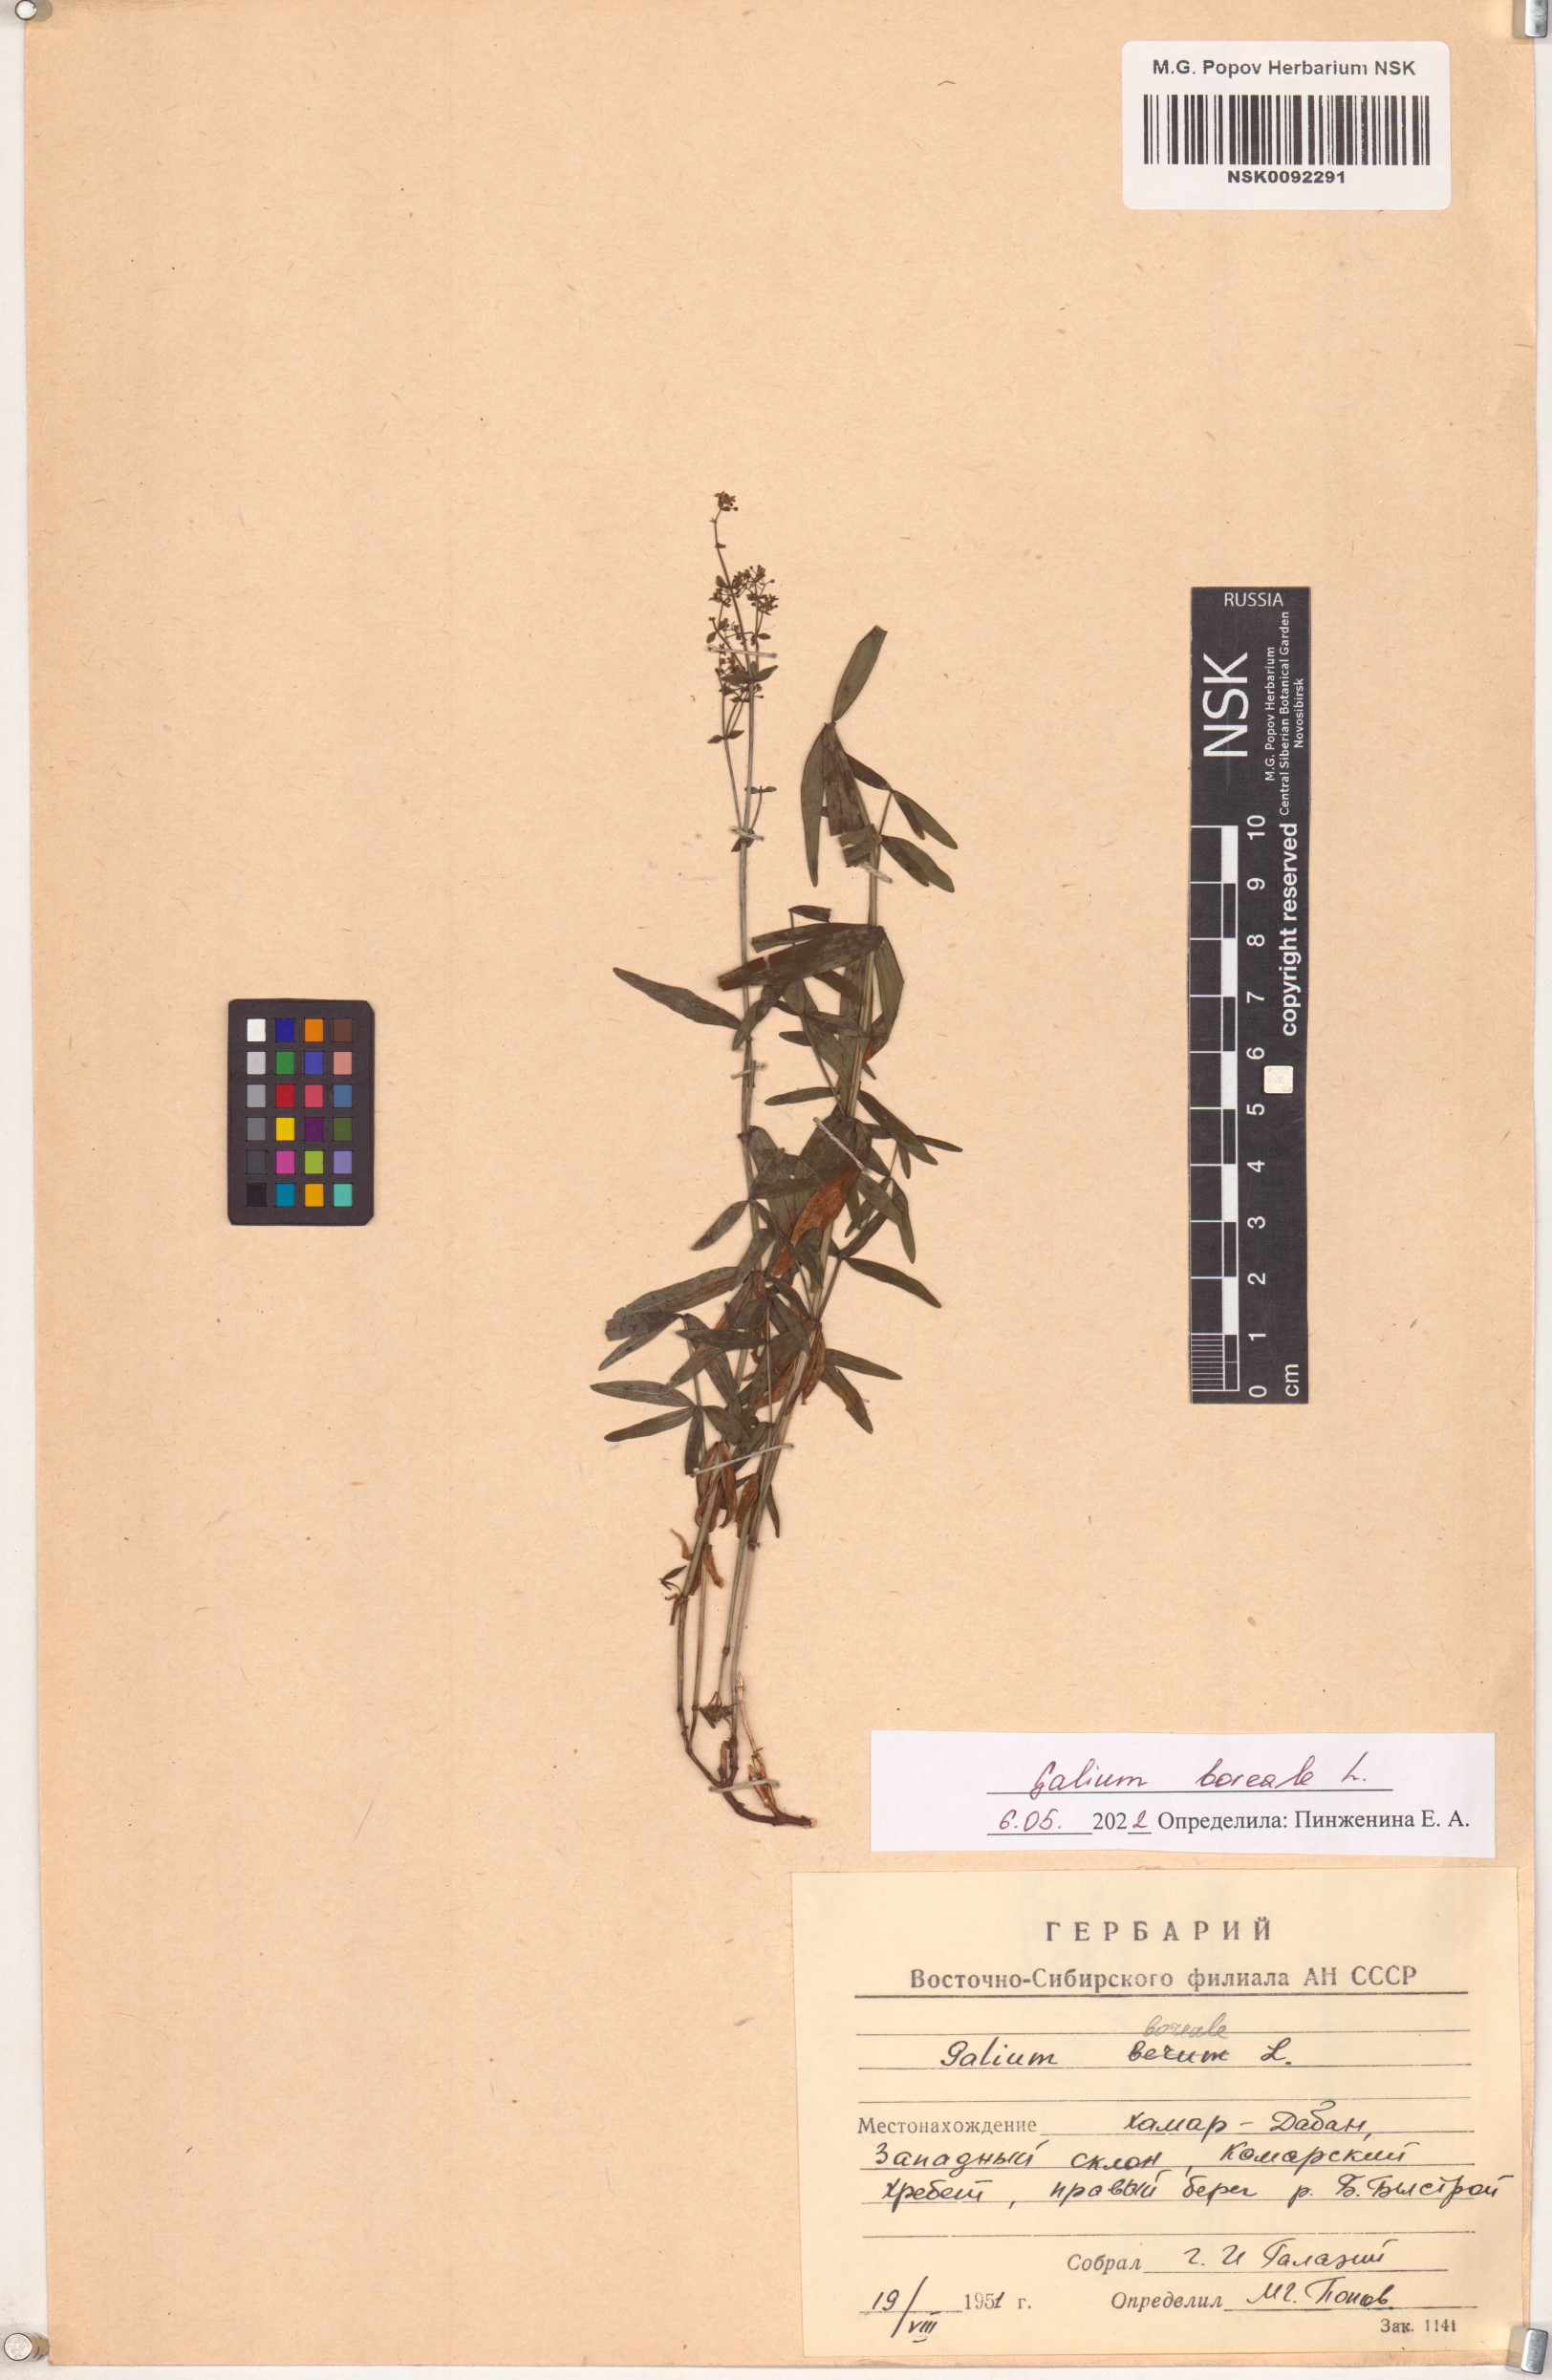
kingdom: Plantae
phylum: Tracheophyta
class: Magnoliopsida
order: Gentianales
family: Rubiaceae
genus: Galium
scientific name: Galium boreale
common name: Northern bedstraw
